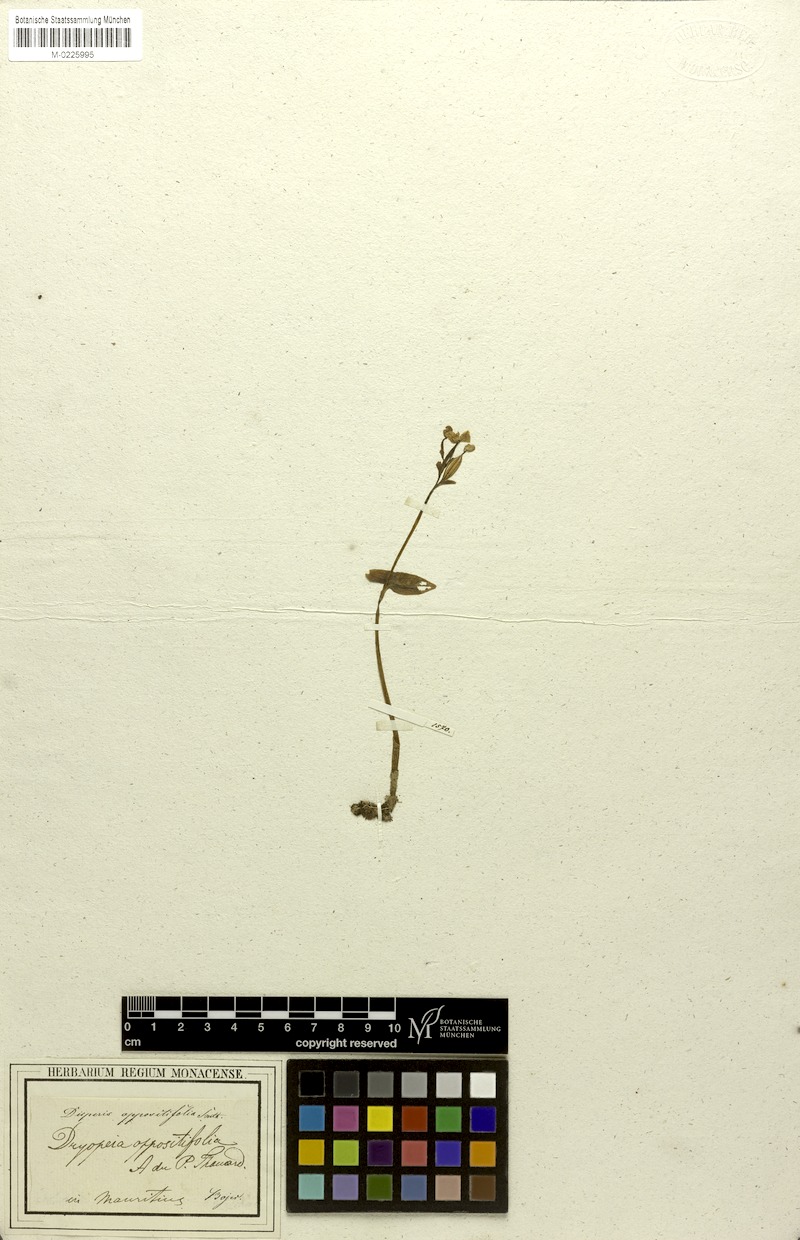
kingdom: Plantae
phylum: Tracheophyta
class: Liliopsida
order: Asparagales
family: Orchidaceae
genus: Disperis
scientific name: Disperis oppositifolia
